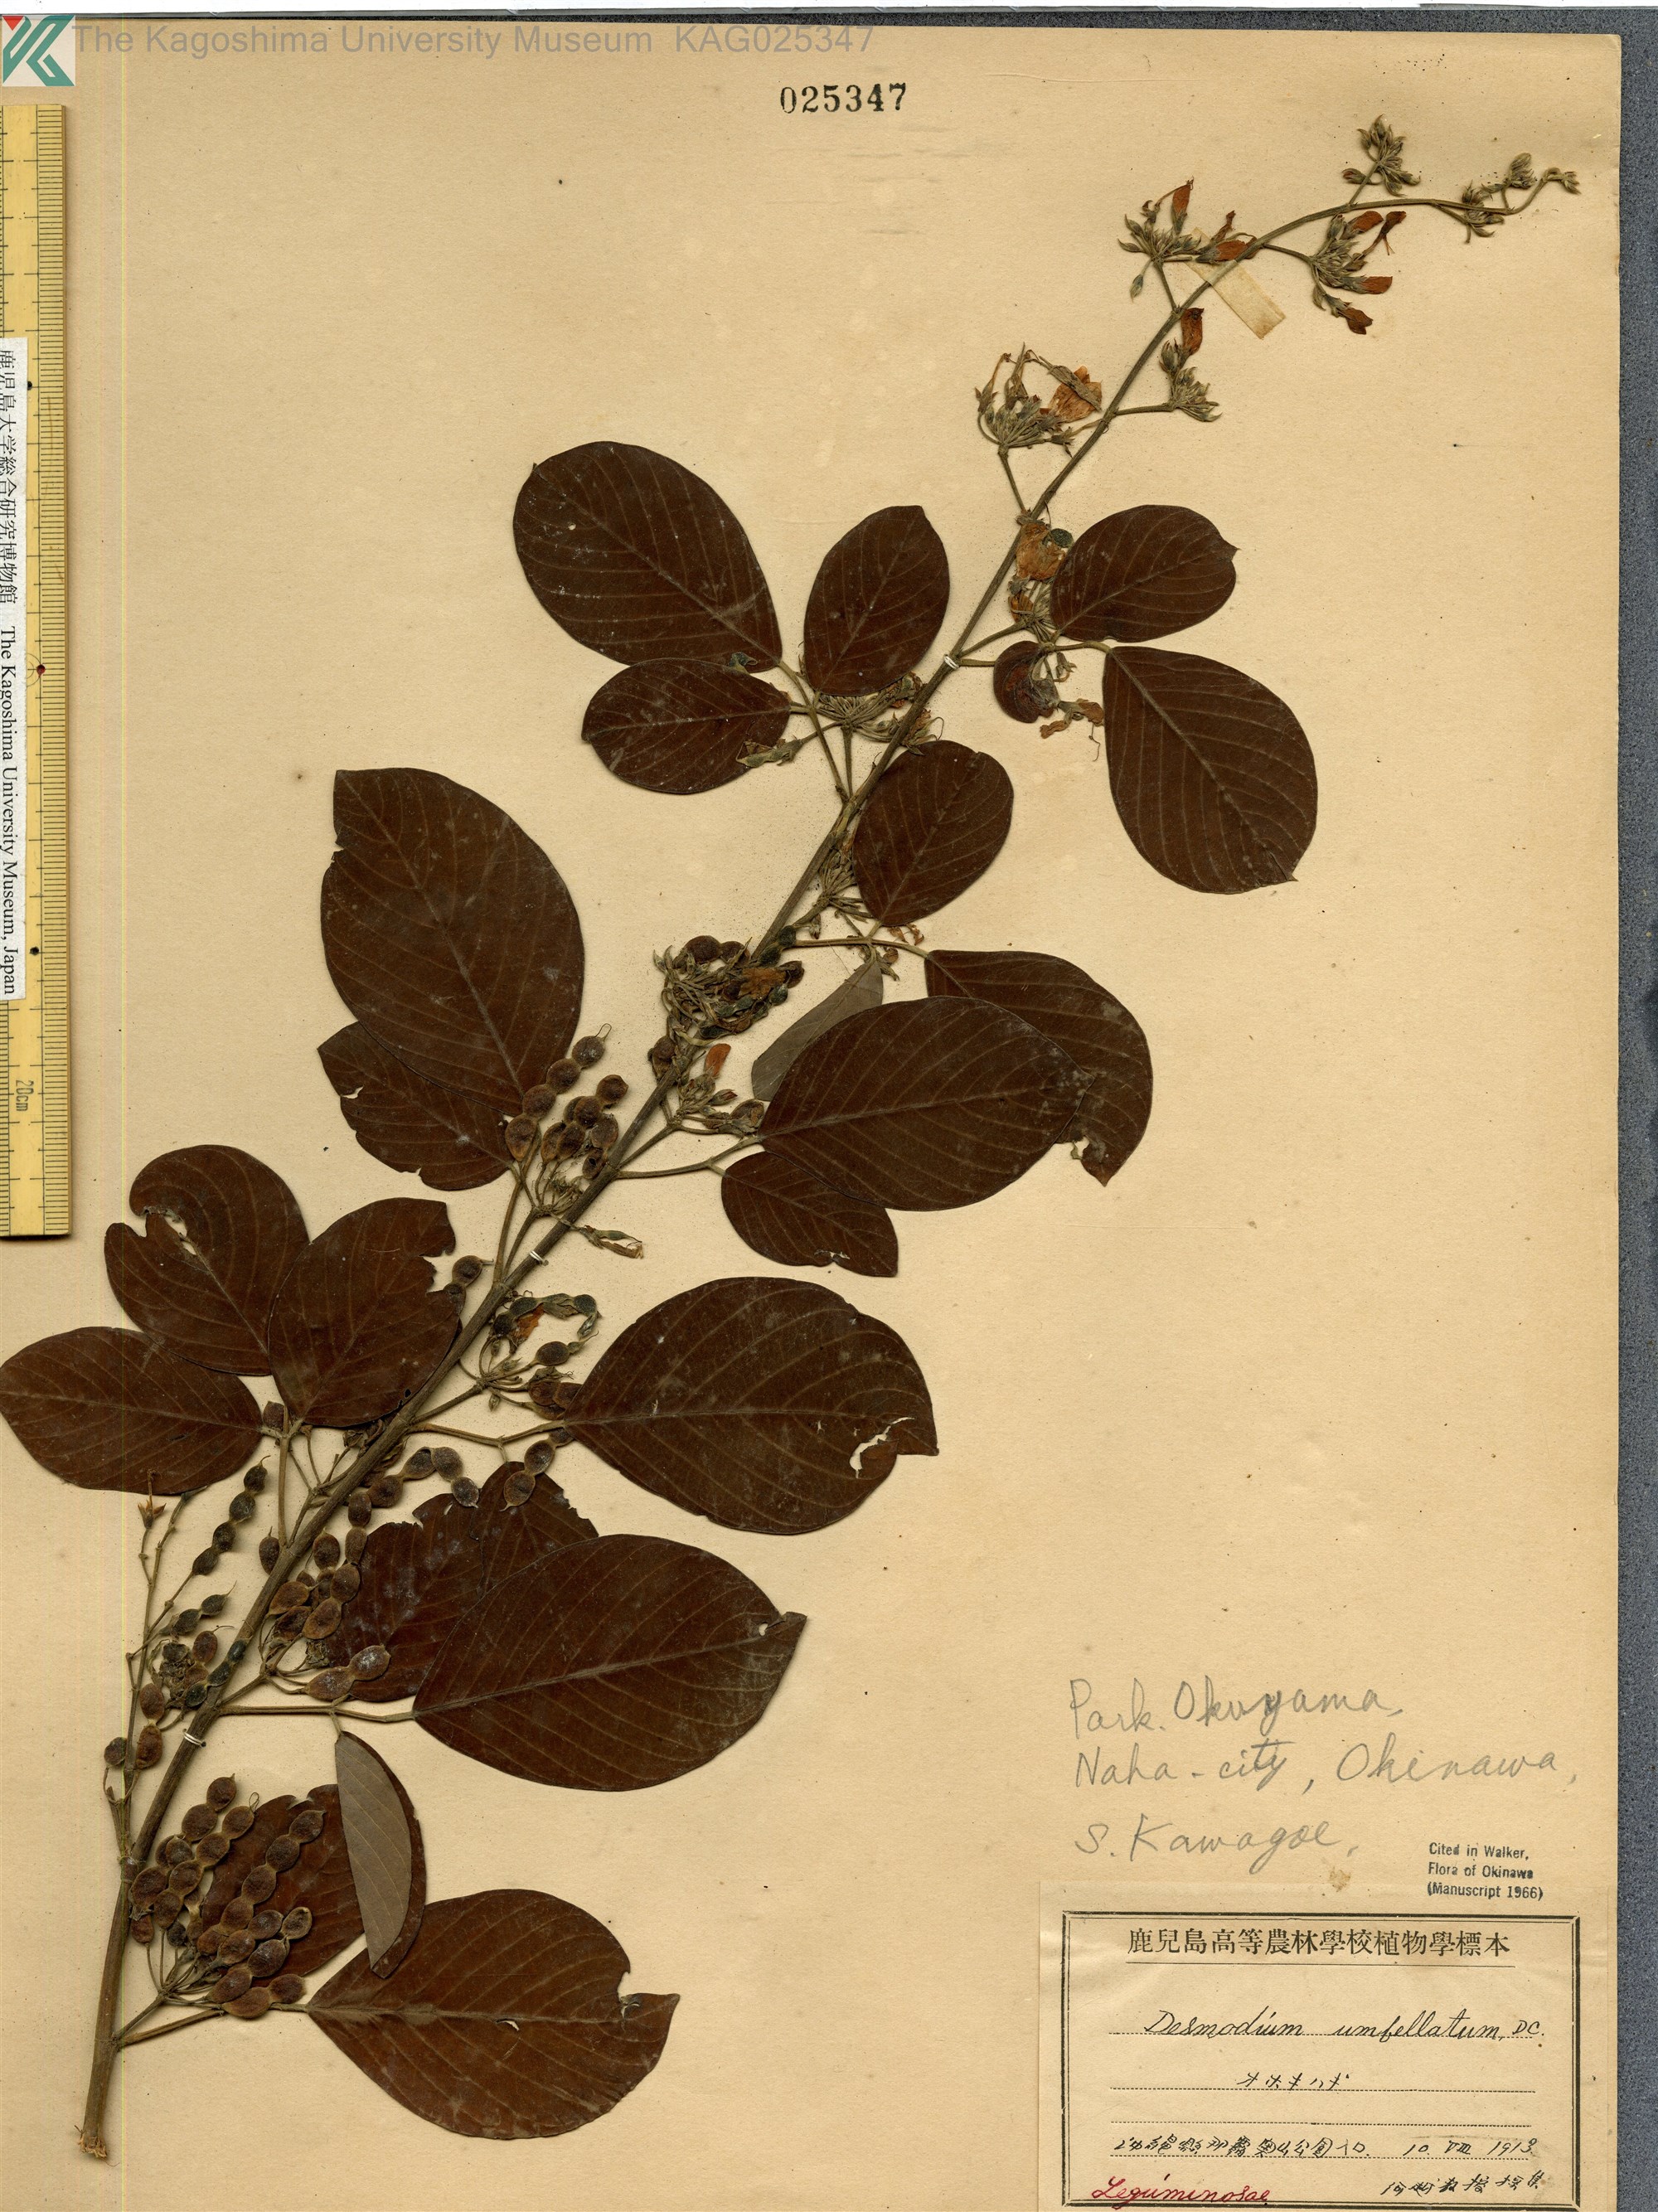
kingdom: Plantae
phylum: Tracheophyta
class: Magnoliopsida
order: Fabales
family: Fabaceae
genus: Desmodium
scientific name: Desmodium umbellatum
